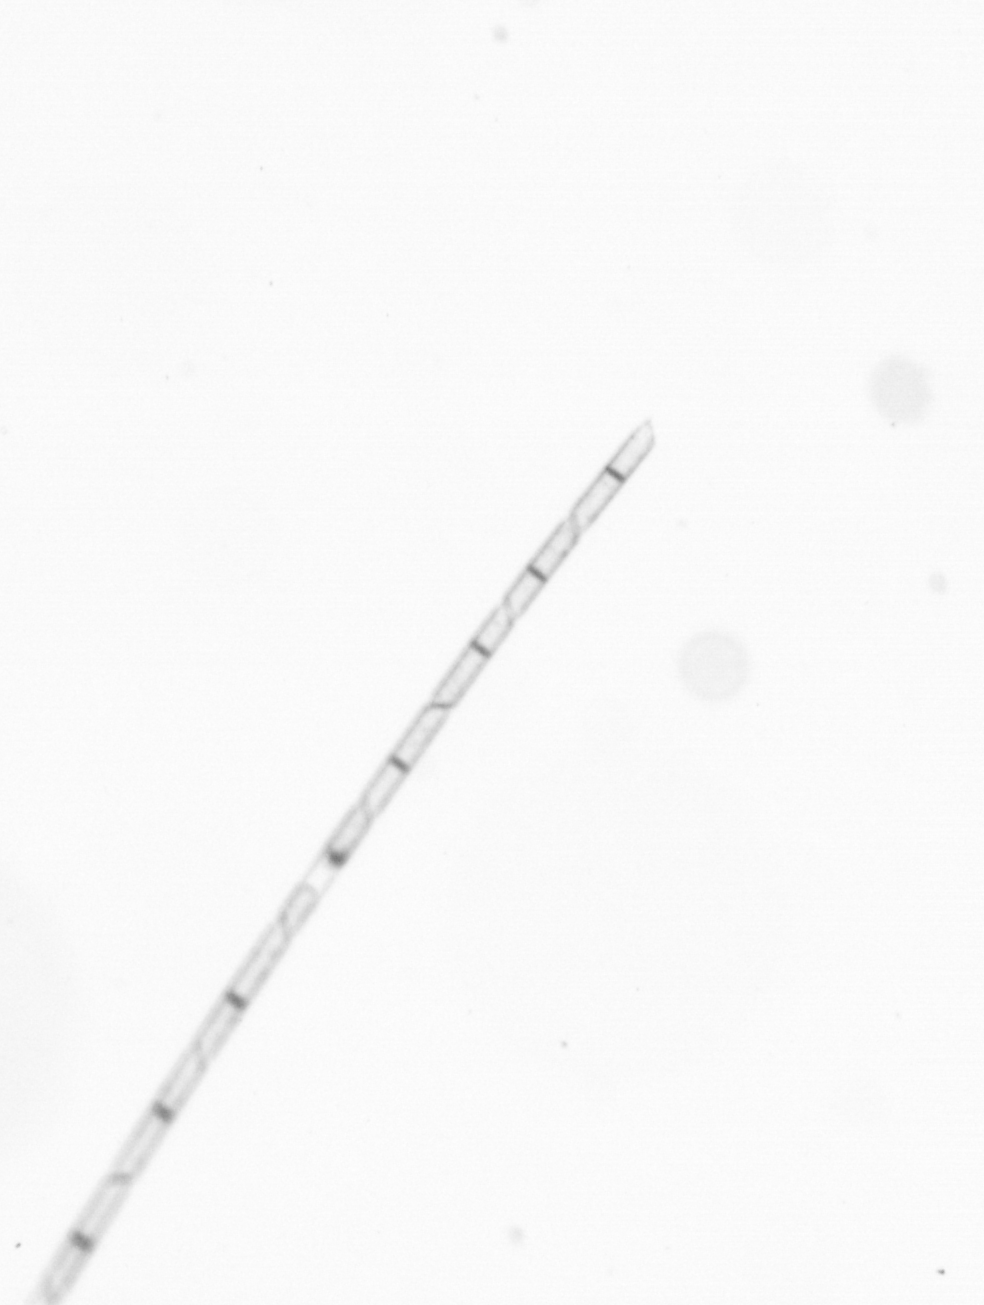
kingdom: Chromista
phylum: Ochrophyta
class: Bacillariophyceae
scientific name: Bacillariophyceae
